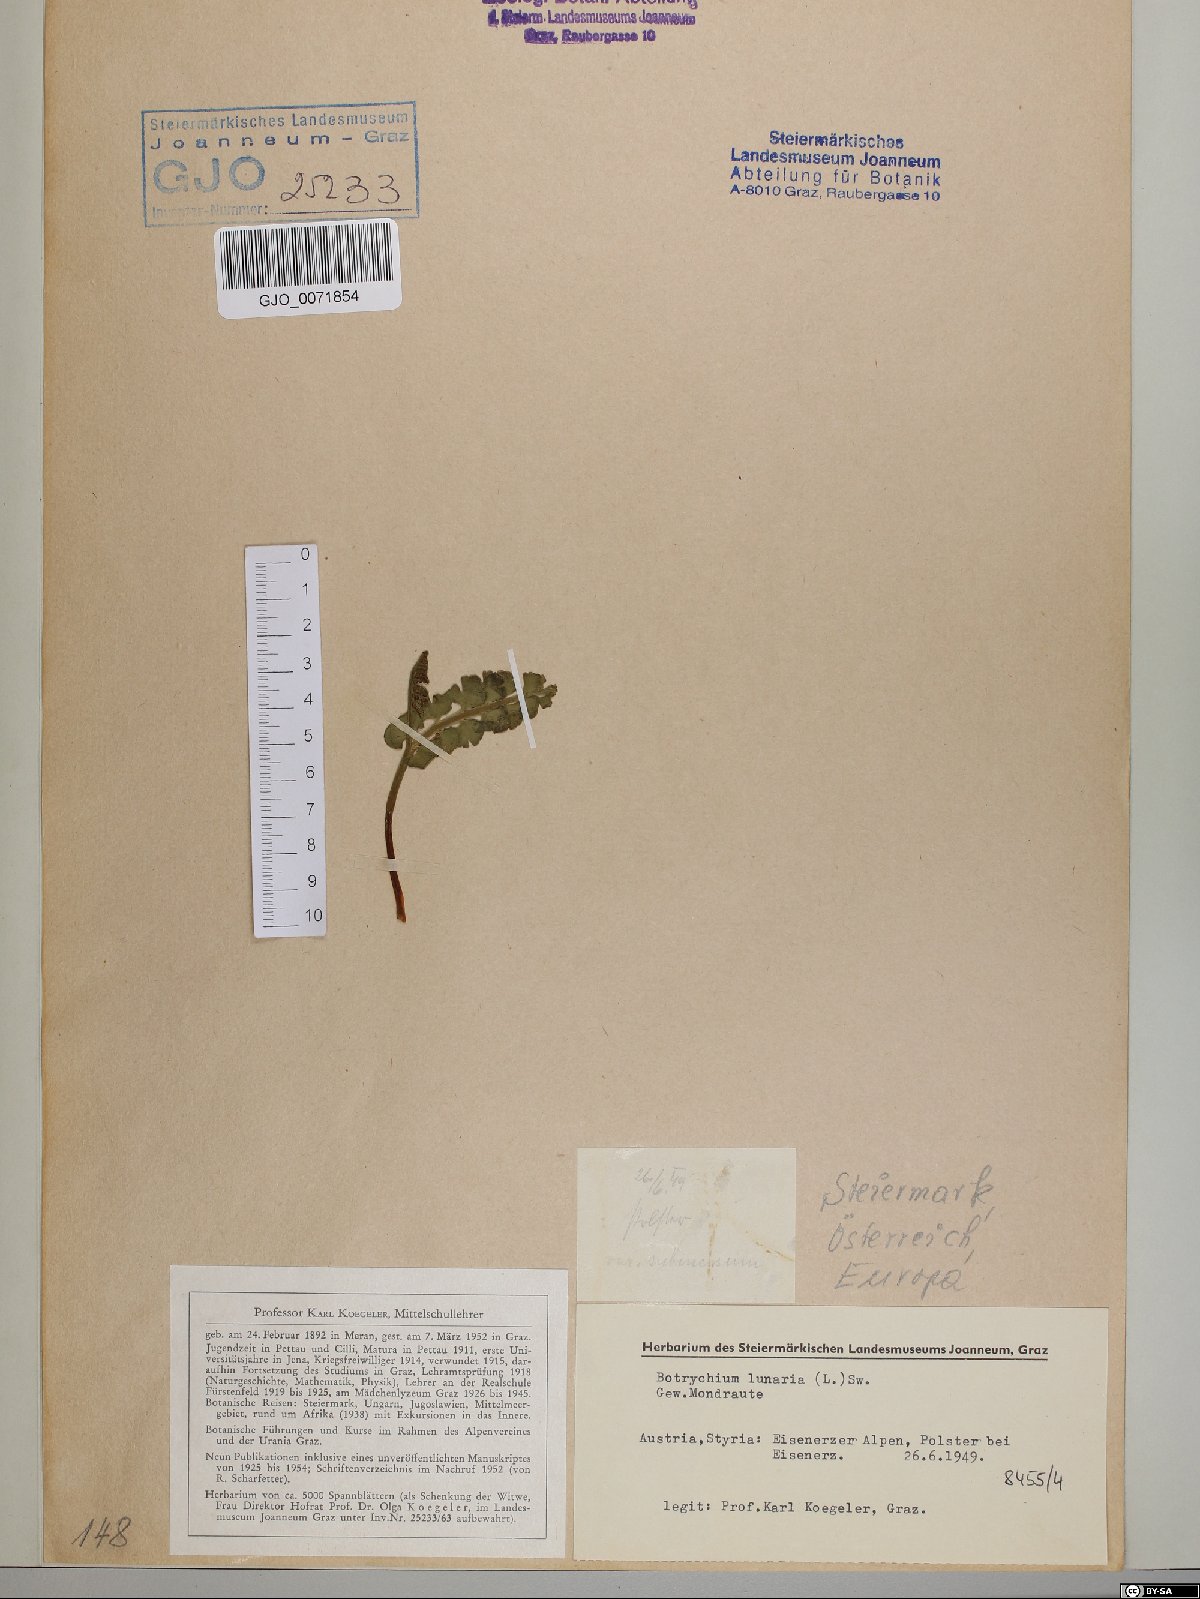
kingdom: Plantae
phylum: Tracheophyta
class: Polypodiopsida
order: Ophioglossales
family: Ophioglossaceae
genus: Botrychium
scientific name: Botrychium lunaria
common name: Moonwort
